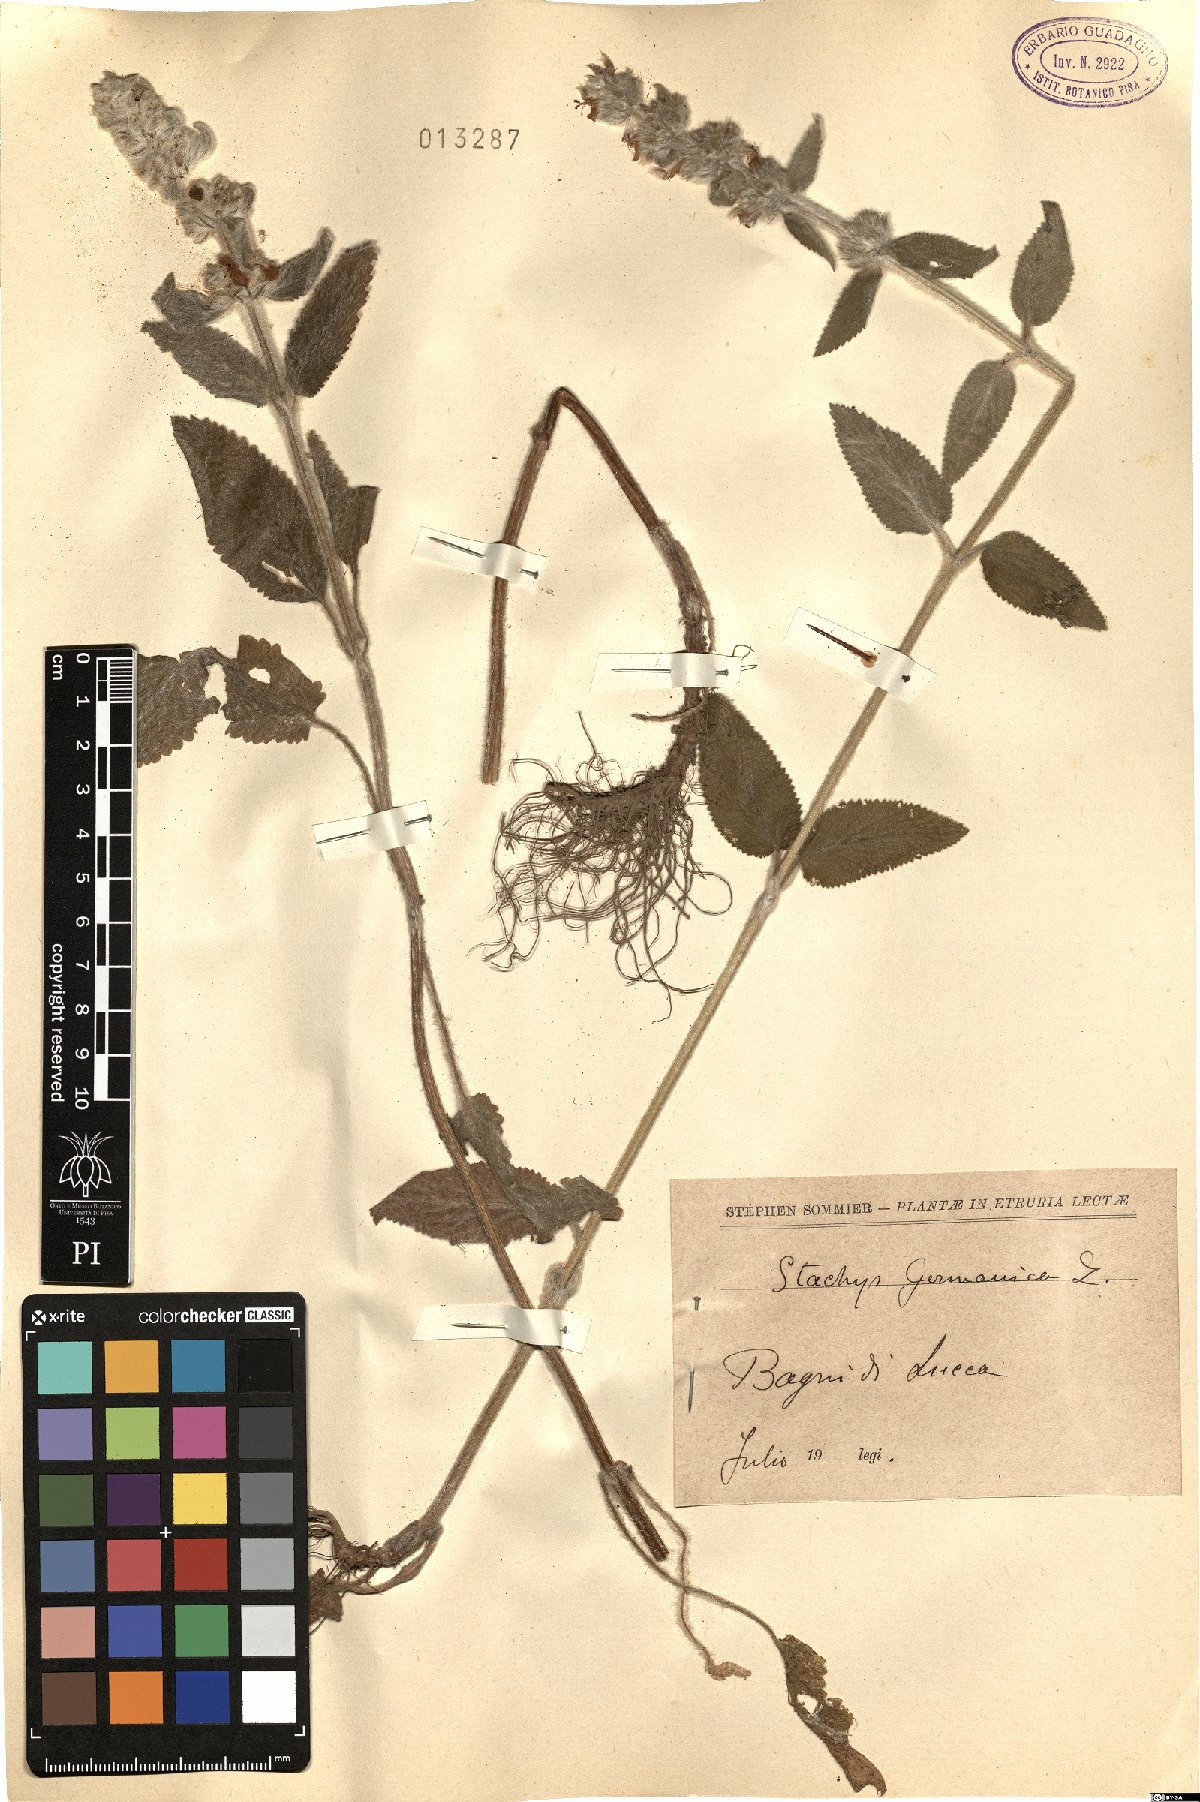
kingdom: Plantae
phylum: Tracheophyta
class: Magnoliopsida
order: Lamiales
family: Lamiaceae
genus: Stachys
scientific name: Stachys germanica
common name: Downy woundwort
